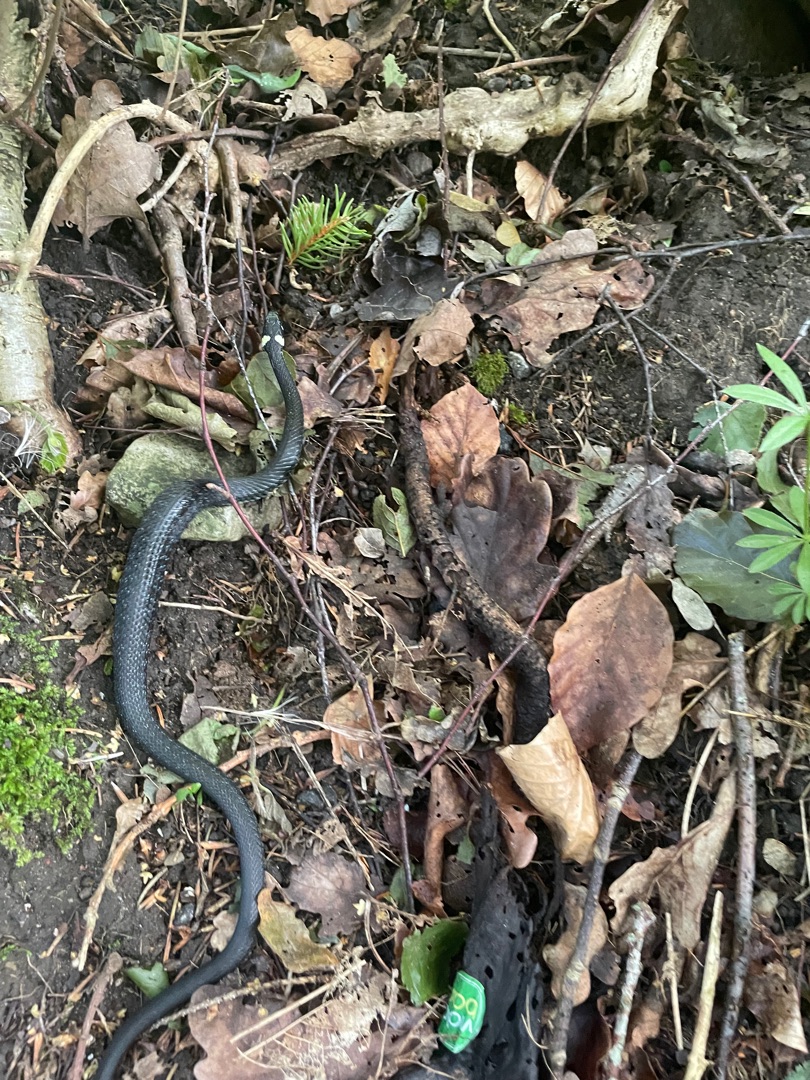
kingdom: Animalia
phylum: Chordata
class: Squamata
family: Colubridae
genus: Natrix
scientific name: Natrix natrix
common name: Snog
